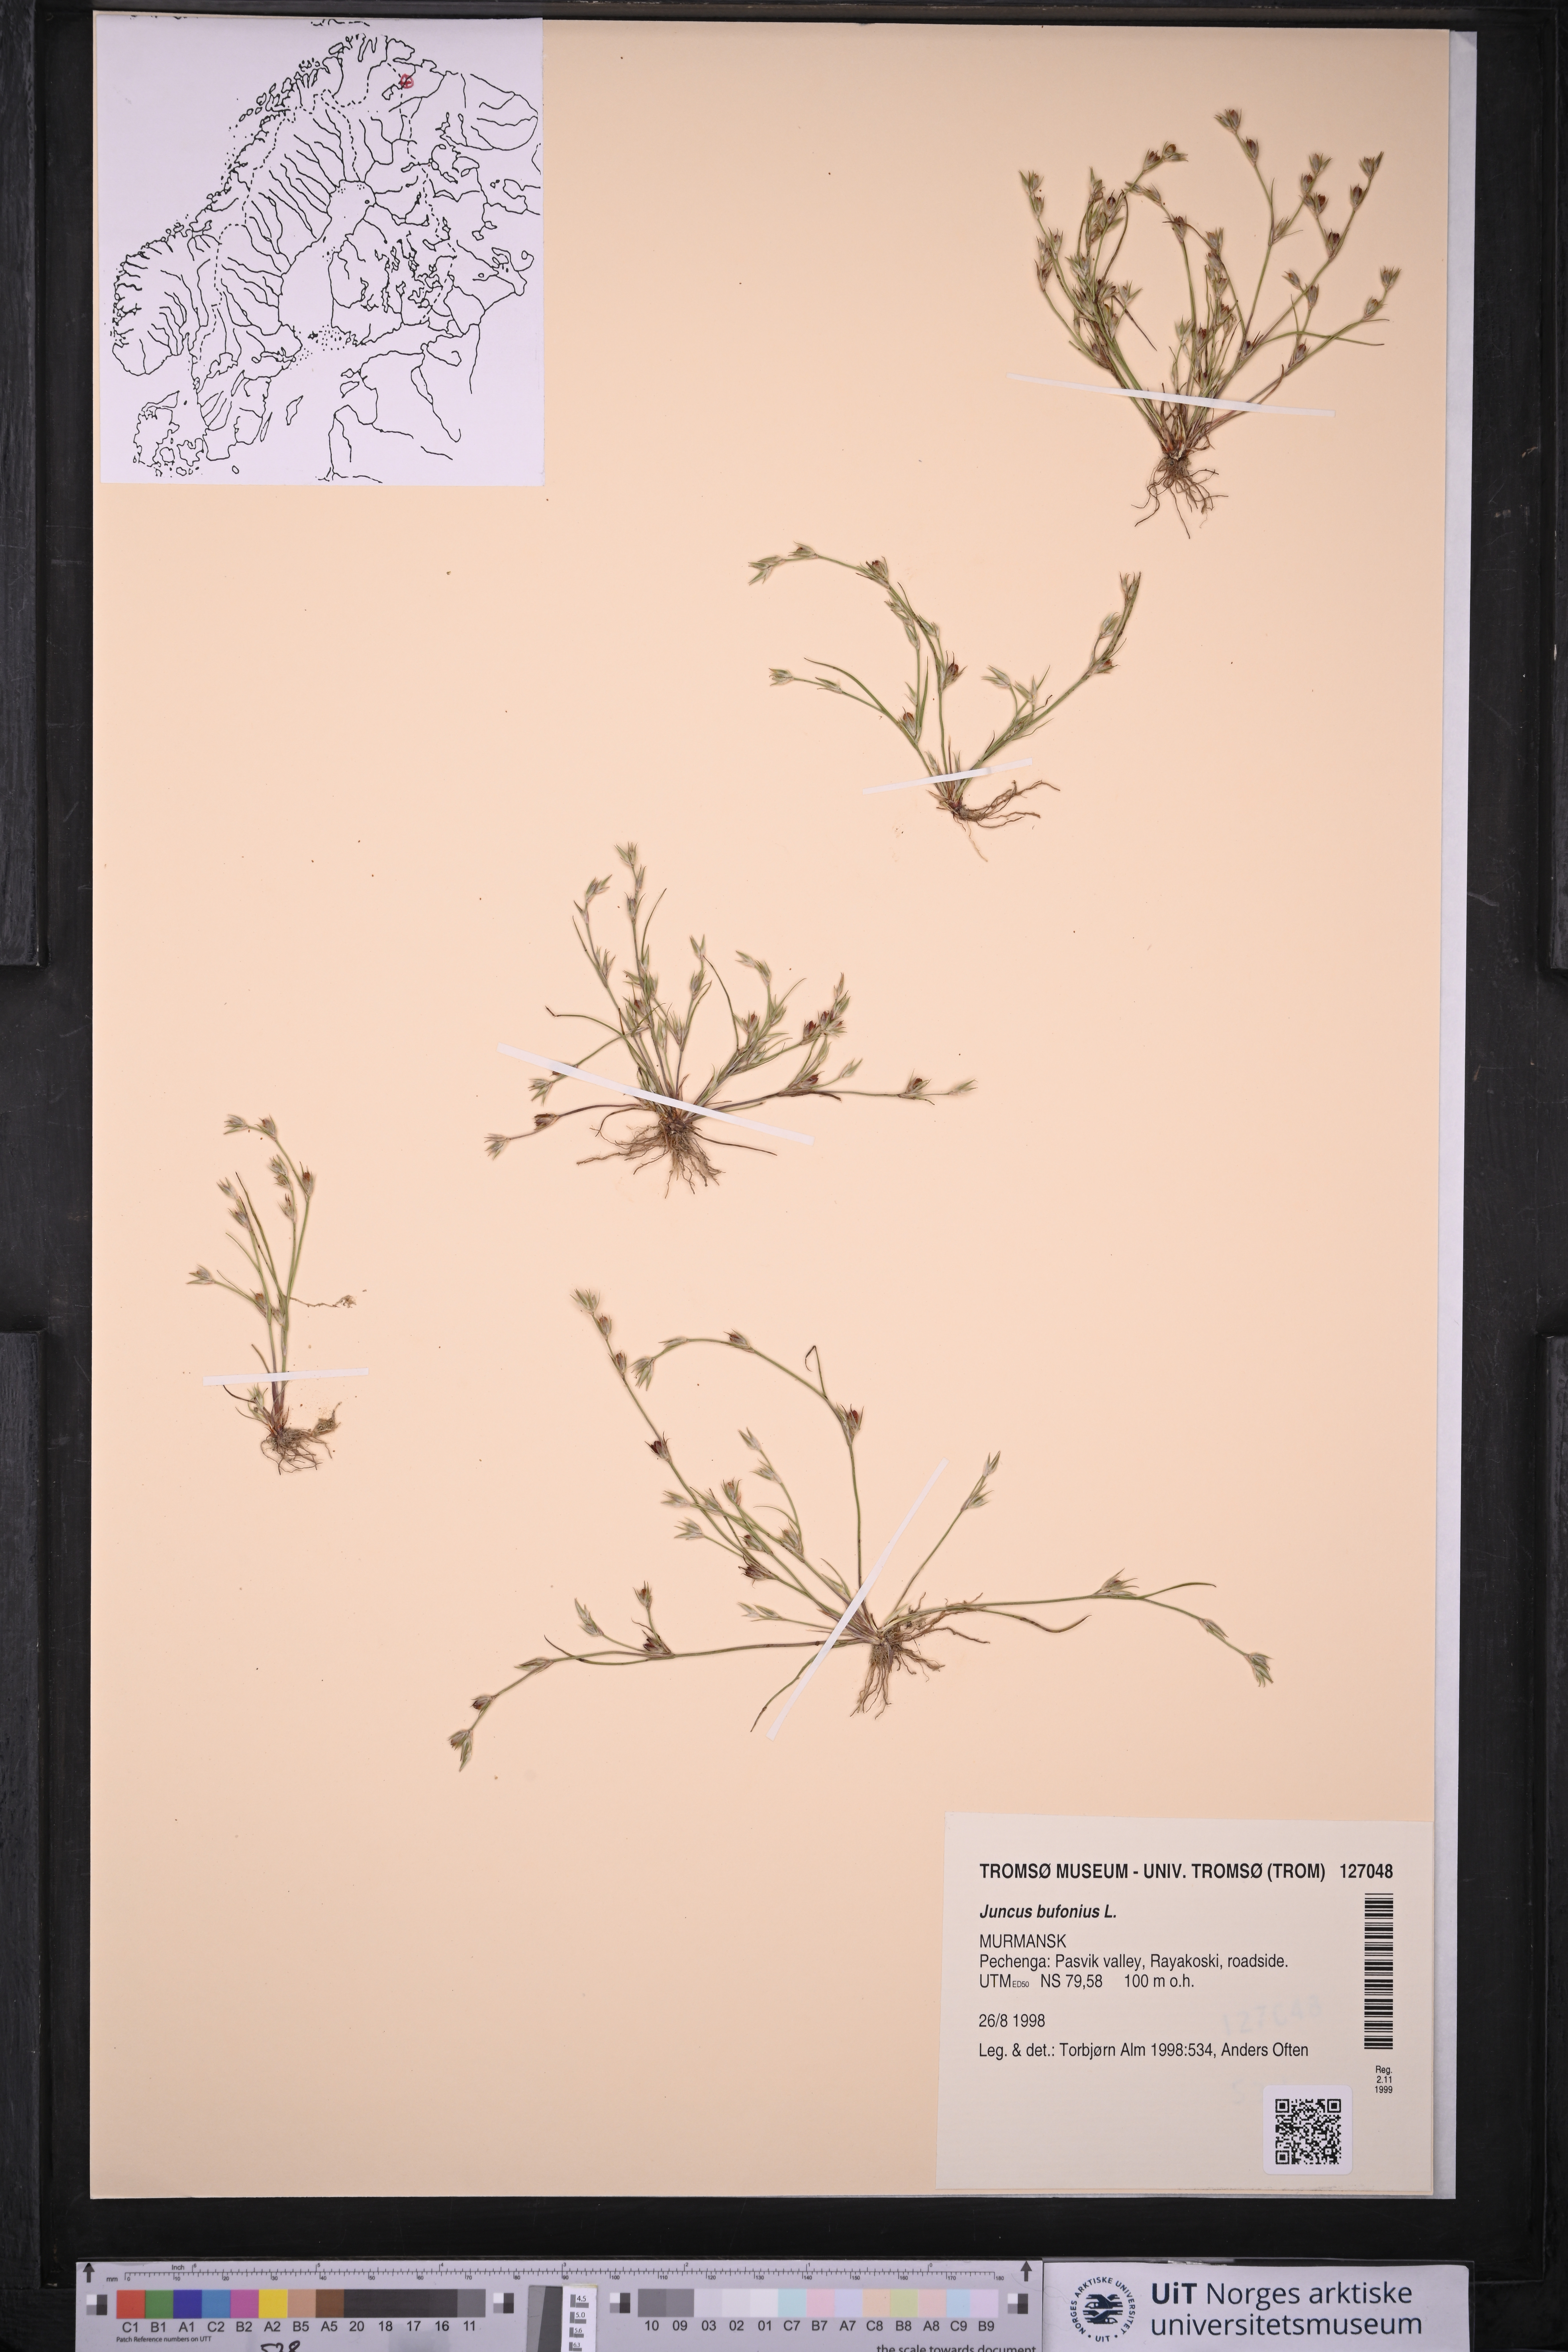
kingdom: Plantae
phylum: Tracheophyta
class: Liliopsida
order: Poales
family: Juncaceae
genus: Juncus
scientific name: Juncus bufonius
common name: Toad rush
